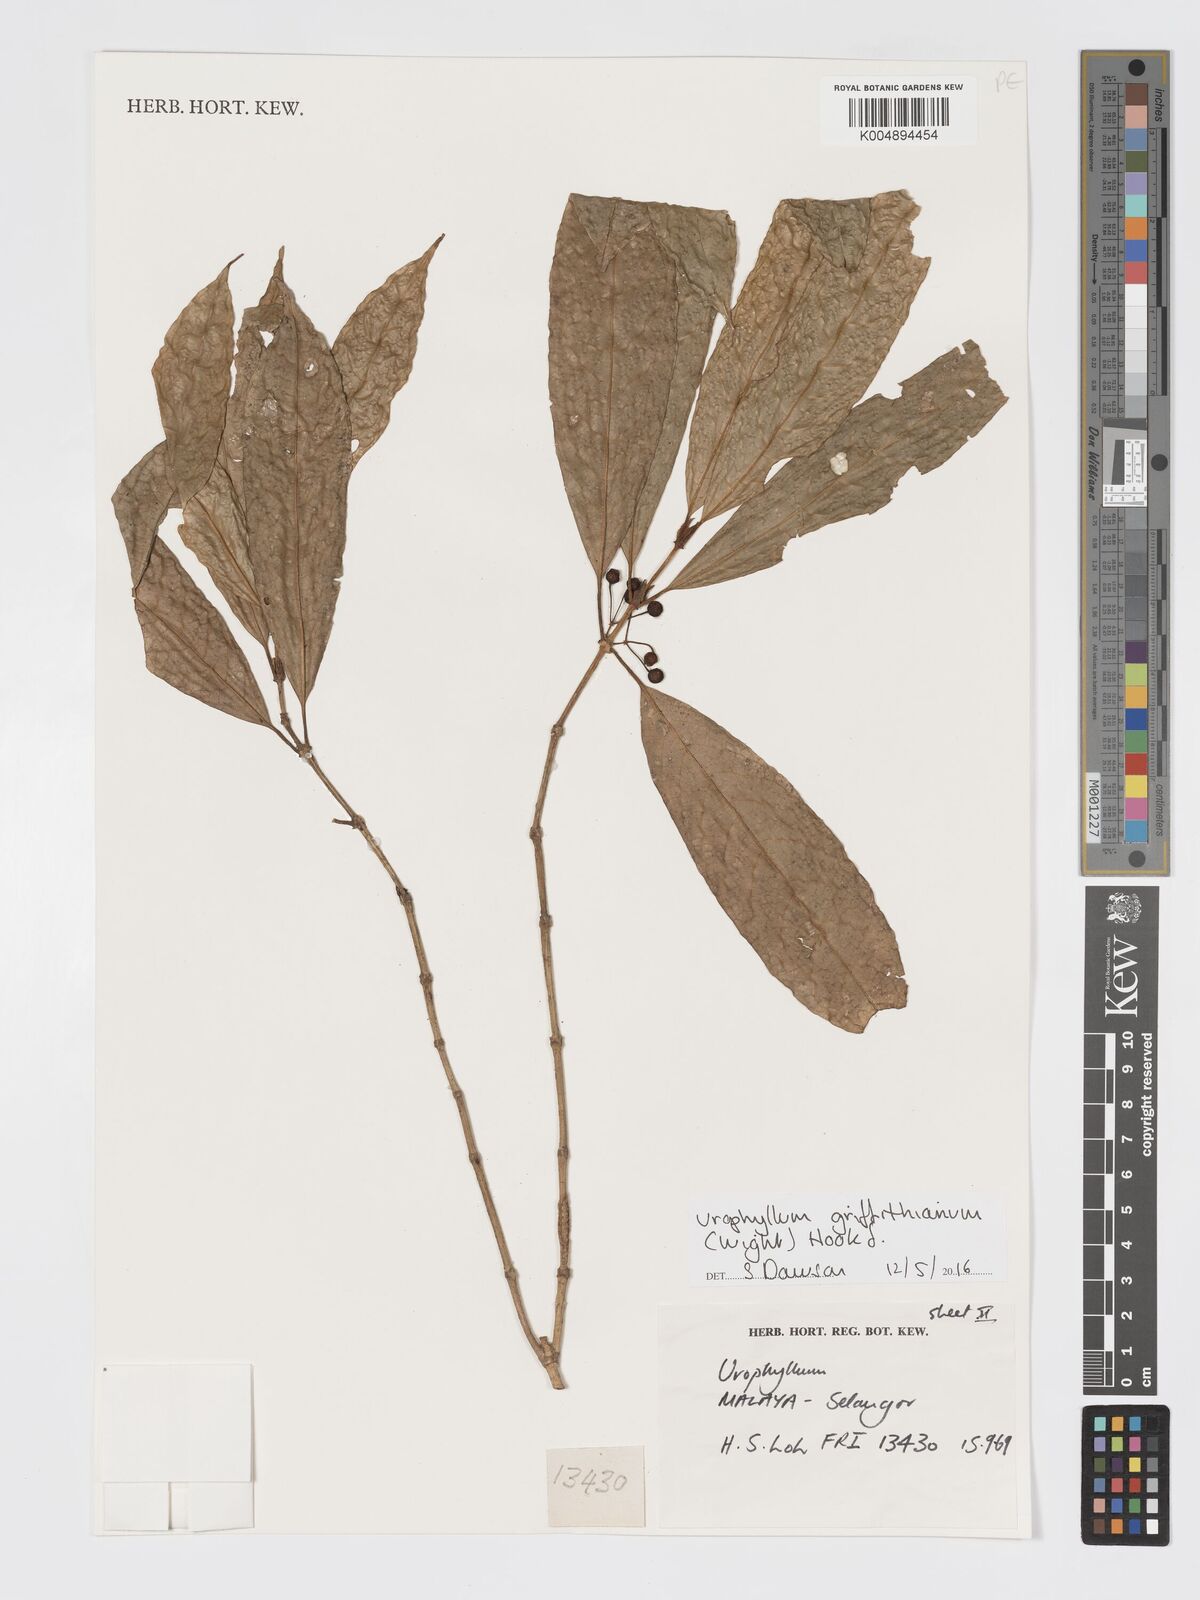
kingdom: Plantae
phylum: Tracheophyta
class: Magnoliopsida
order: Gentianales
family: Rubiaceae
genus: Urophyllum
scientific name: Urophyllum griffithianum
